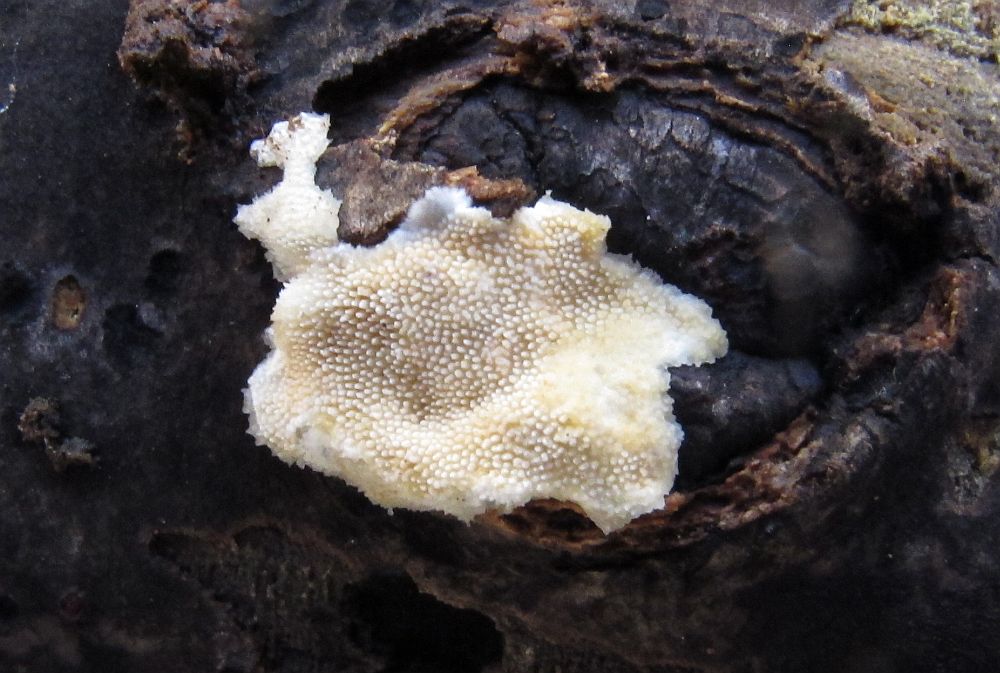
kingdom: Fungi
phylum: Basidiomycota
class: Agaricomycetes
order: Polyporales
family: Steccherinaceae
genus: Steccherinum
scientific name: Steccherinum ochraceum
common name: almindelig skønpig
